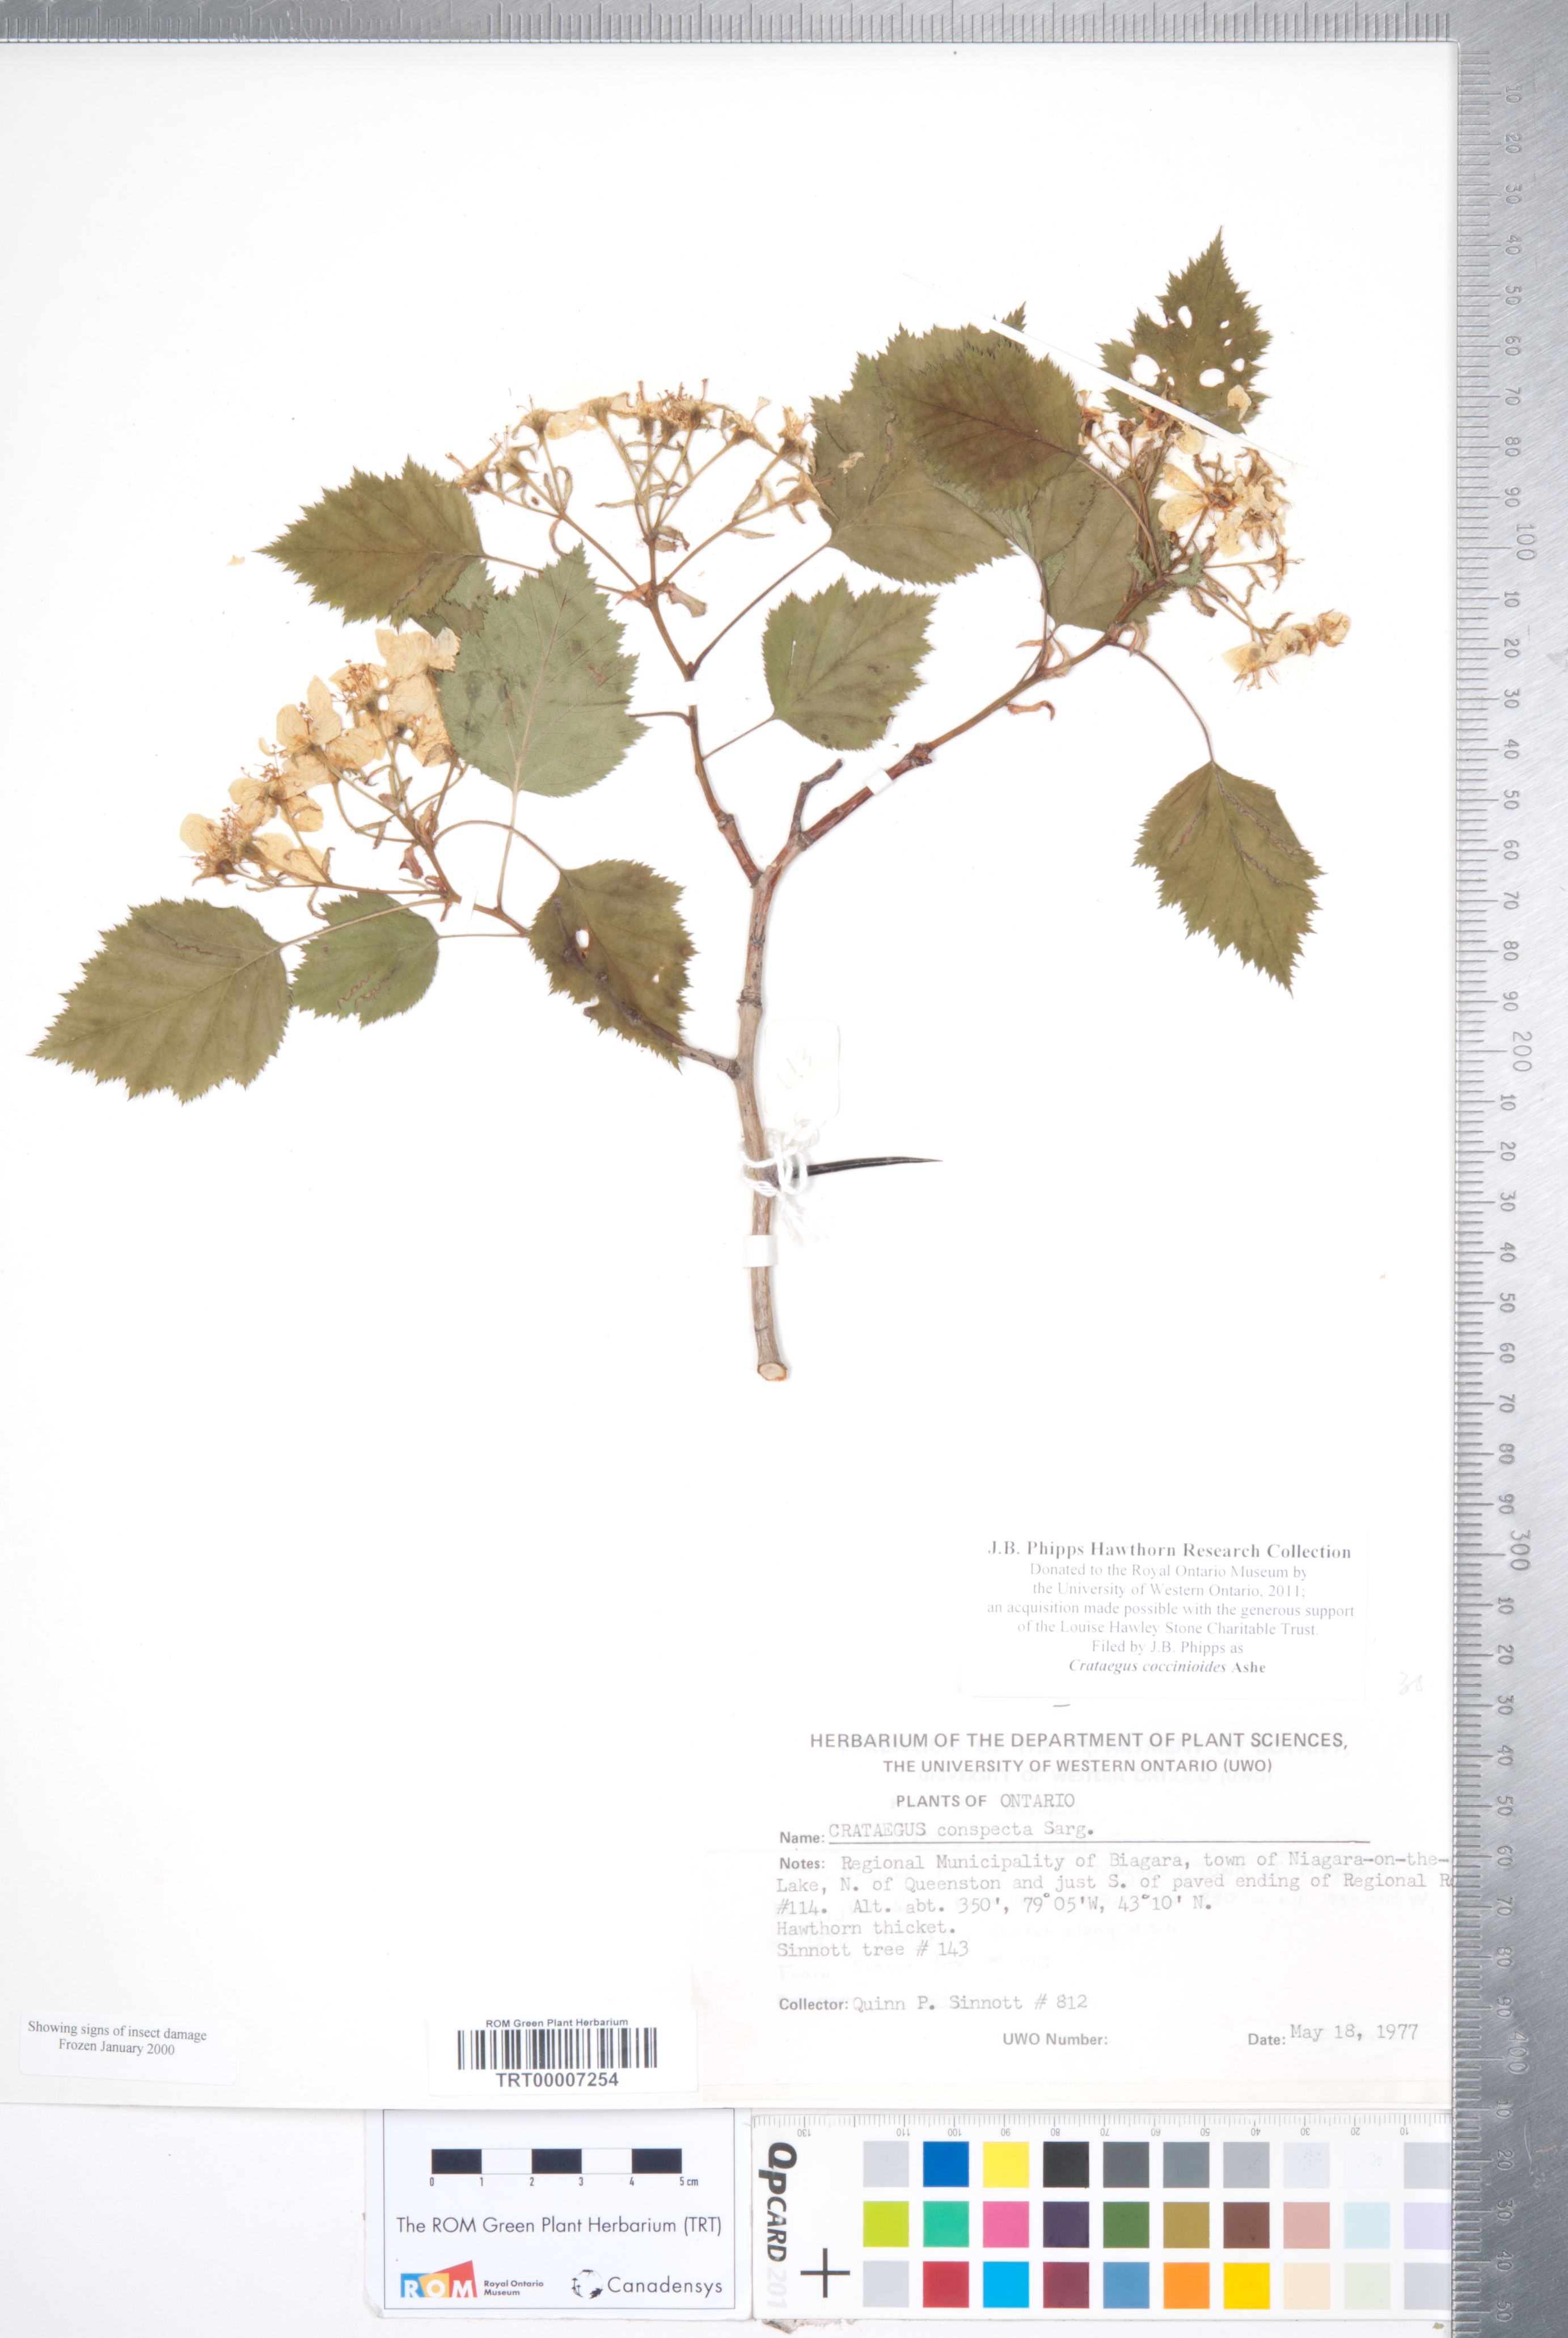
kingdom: Plantae
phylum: Tracheophyta
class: Magnoliopsida
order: Rosales
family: Rosaceae
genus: Crataegus
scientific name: Crataegus coccinioides
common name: Large-flowered cockspurthorn
